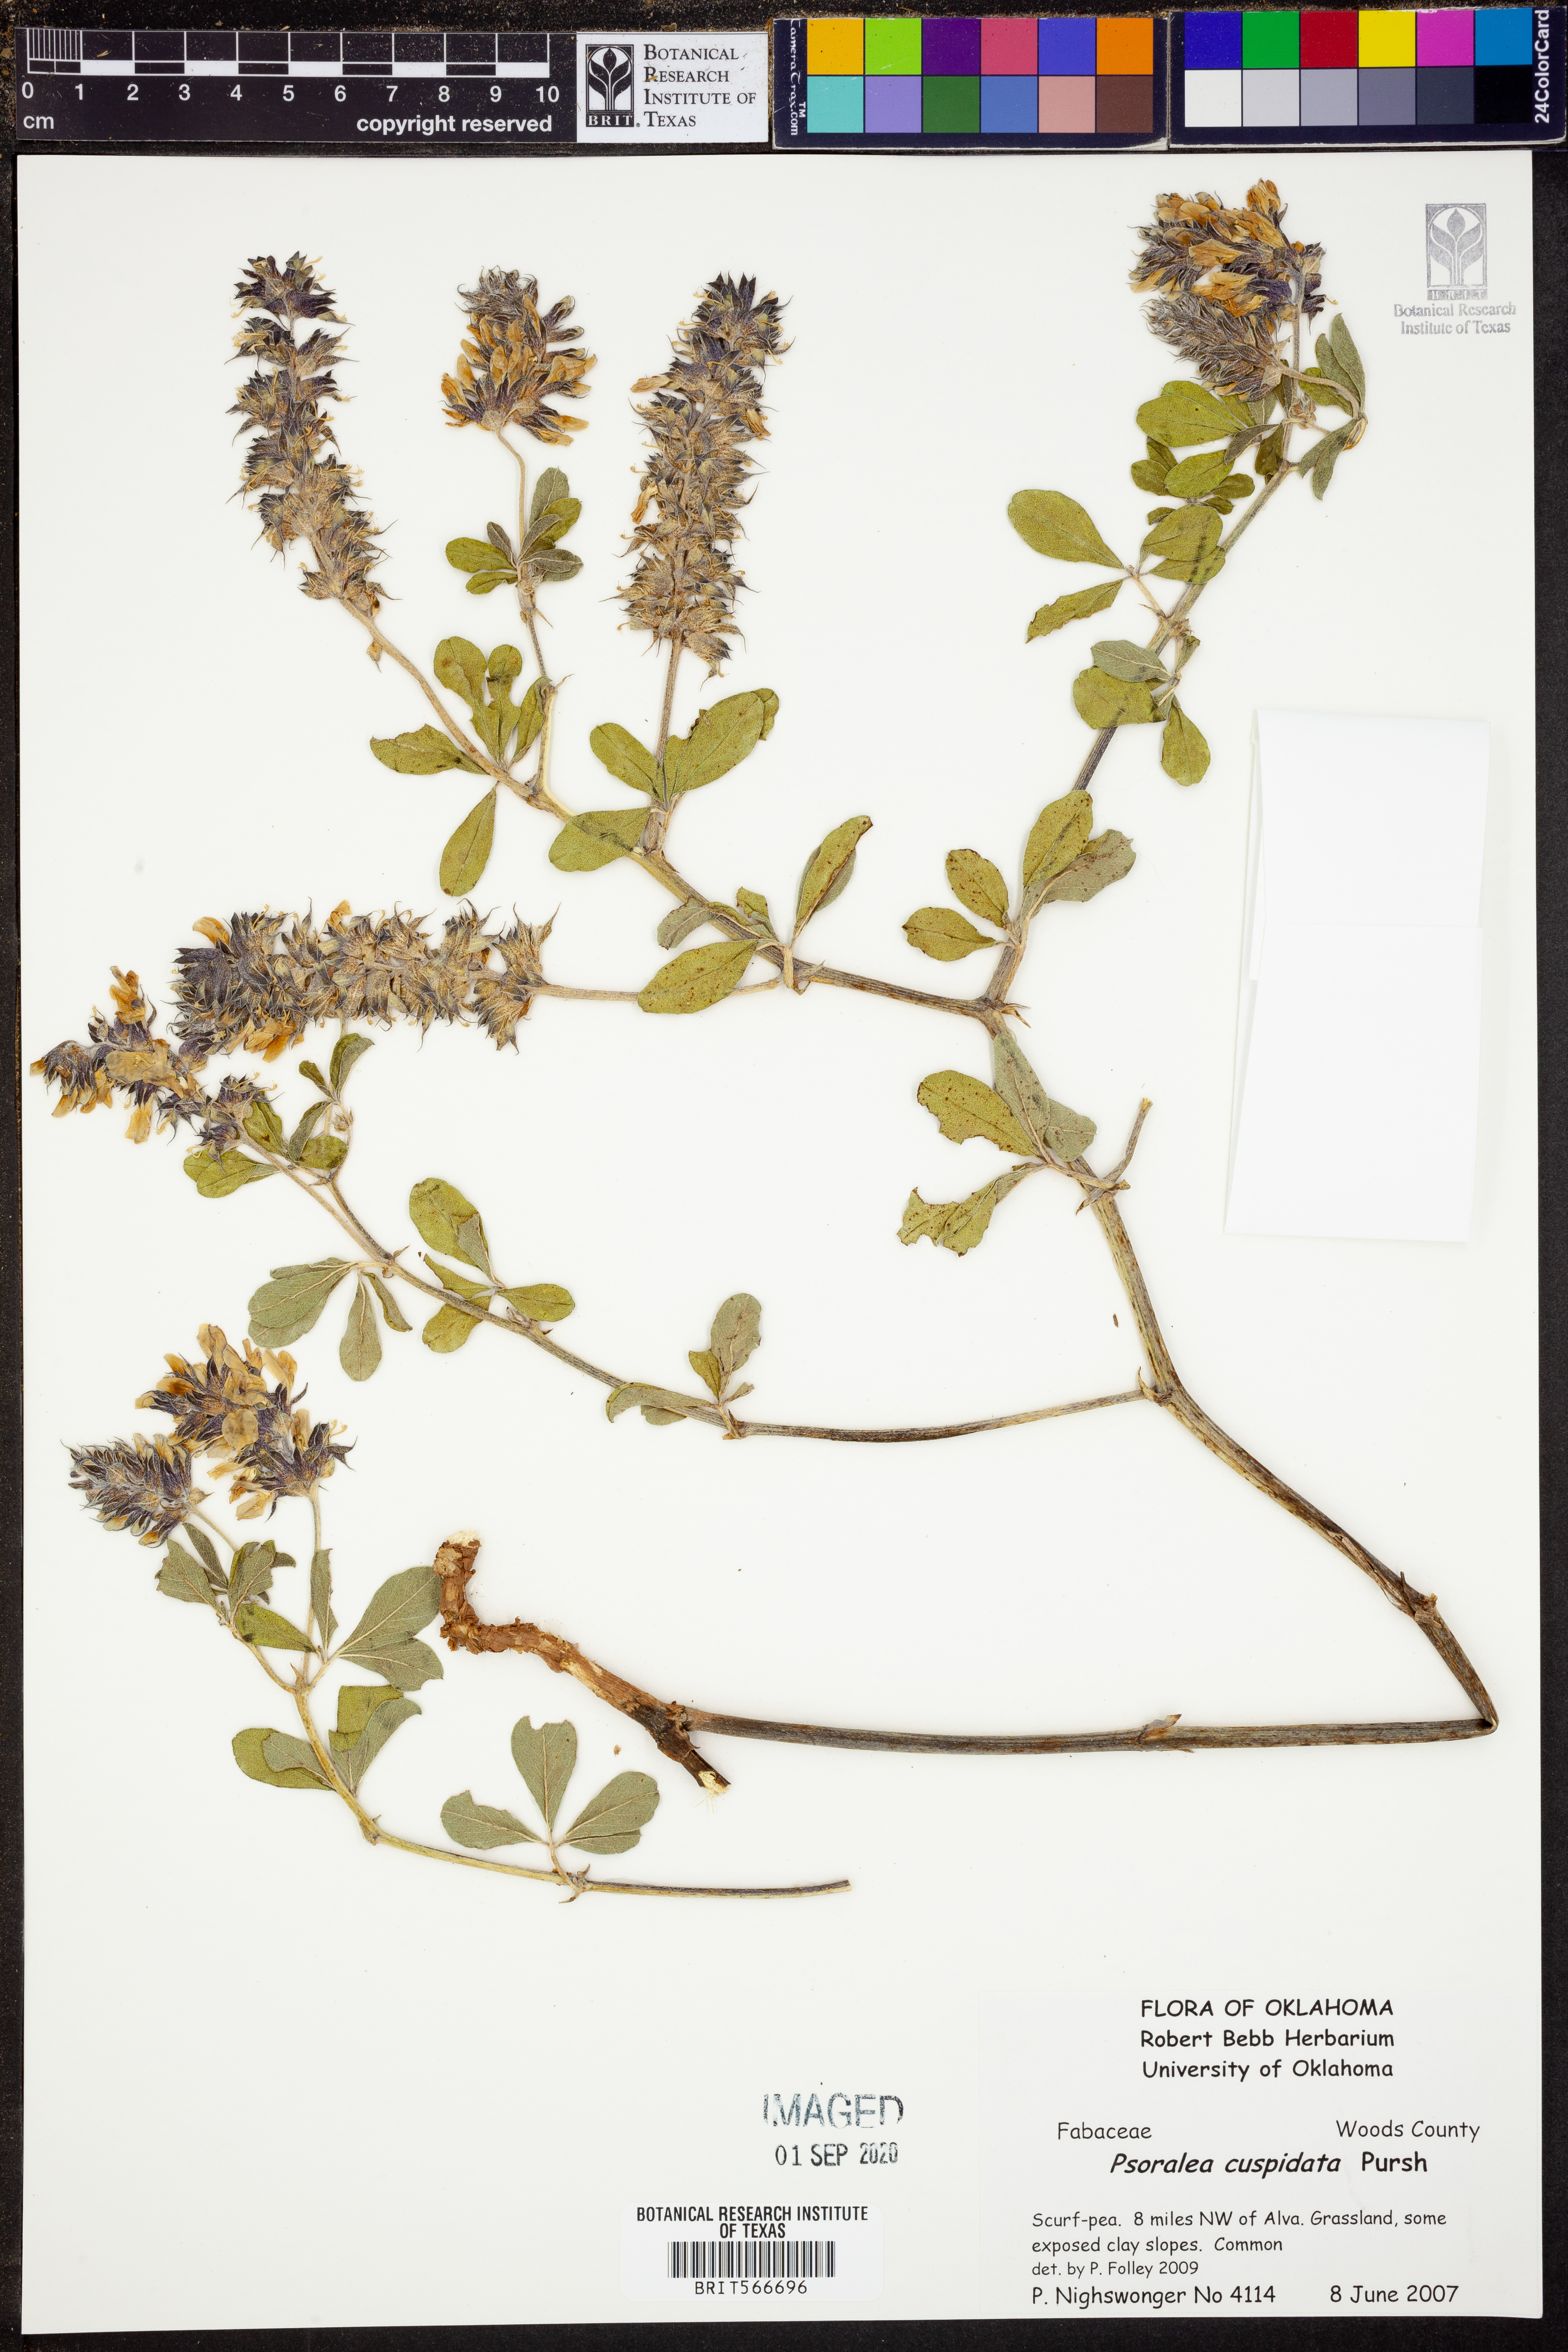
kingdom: Plantae
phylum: Tracheophyta
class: Magnoliopsida
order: Fabales
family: Fabaceae
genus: Pediomelum
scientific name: Pediomelum cuspidatum
